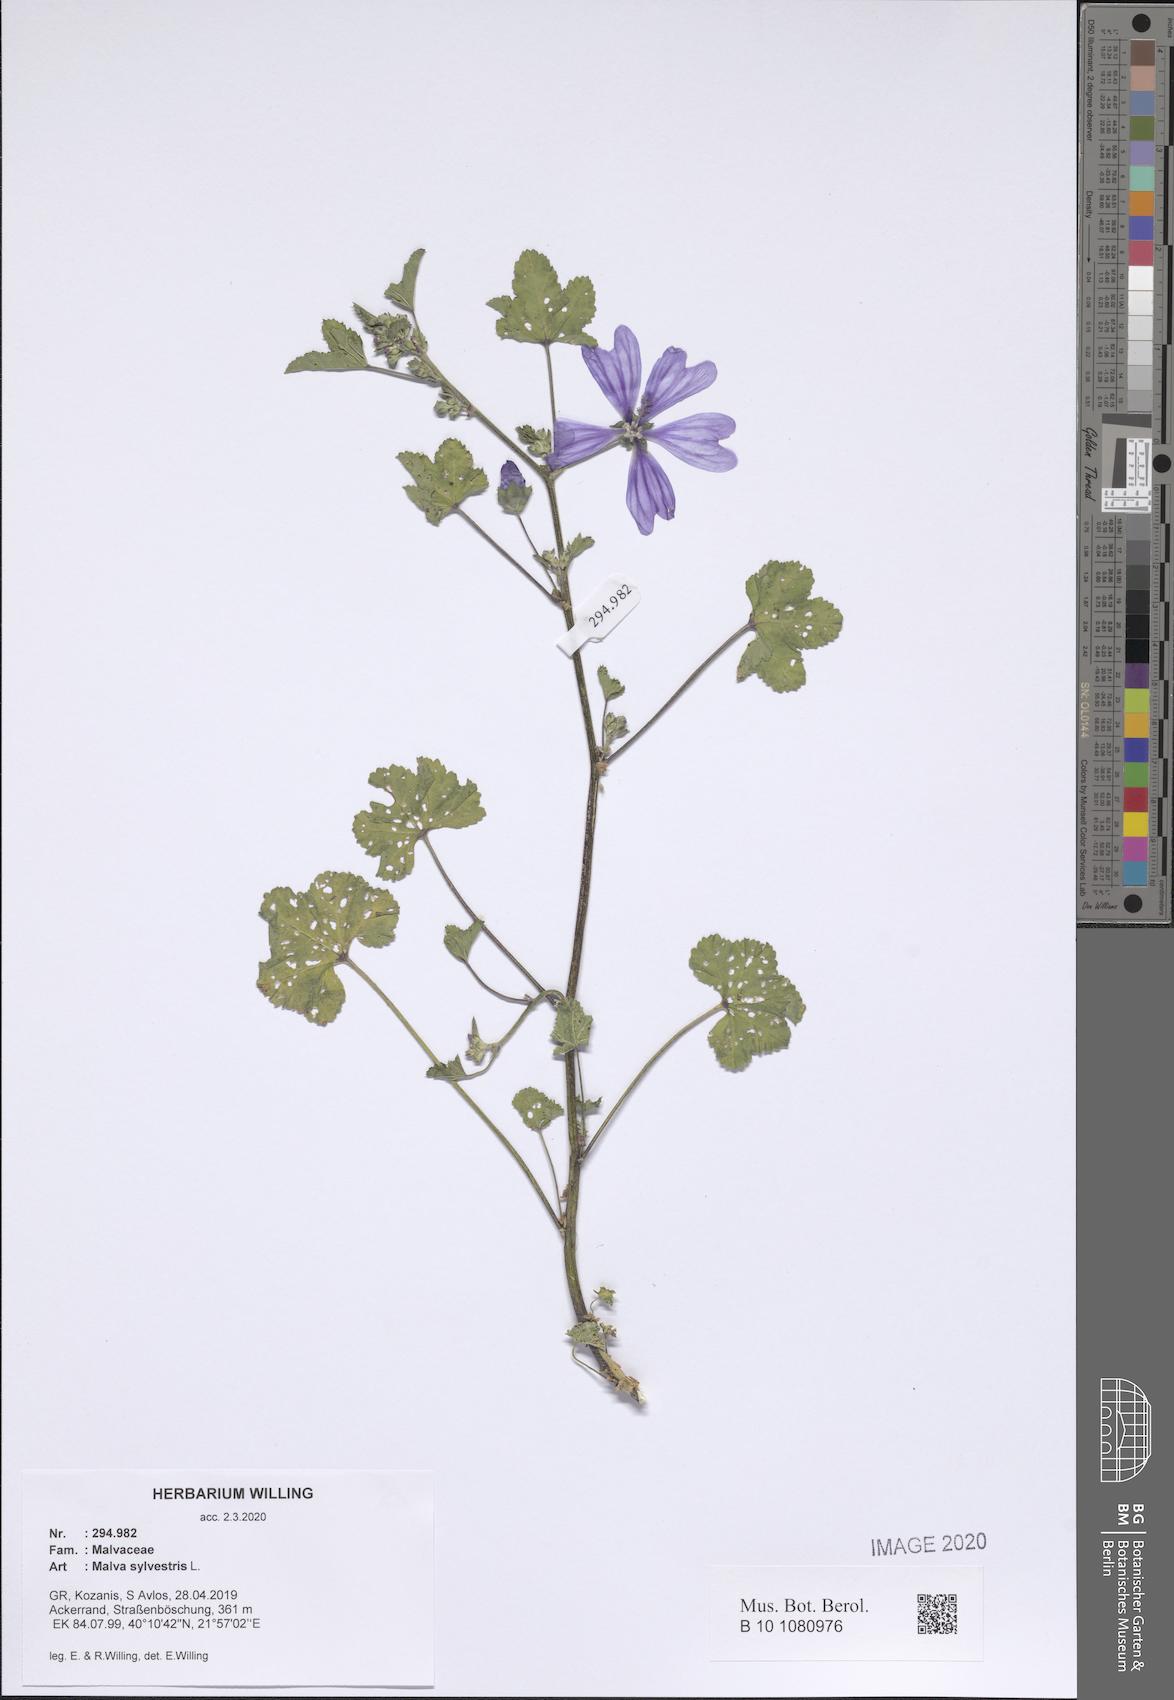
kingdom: Plantae
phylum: Tracheophyta
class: Magnoliopsida
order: Malvales
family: Malvaceae
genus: Malva
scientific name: Malva sylvestris
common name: Common mallow
